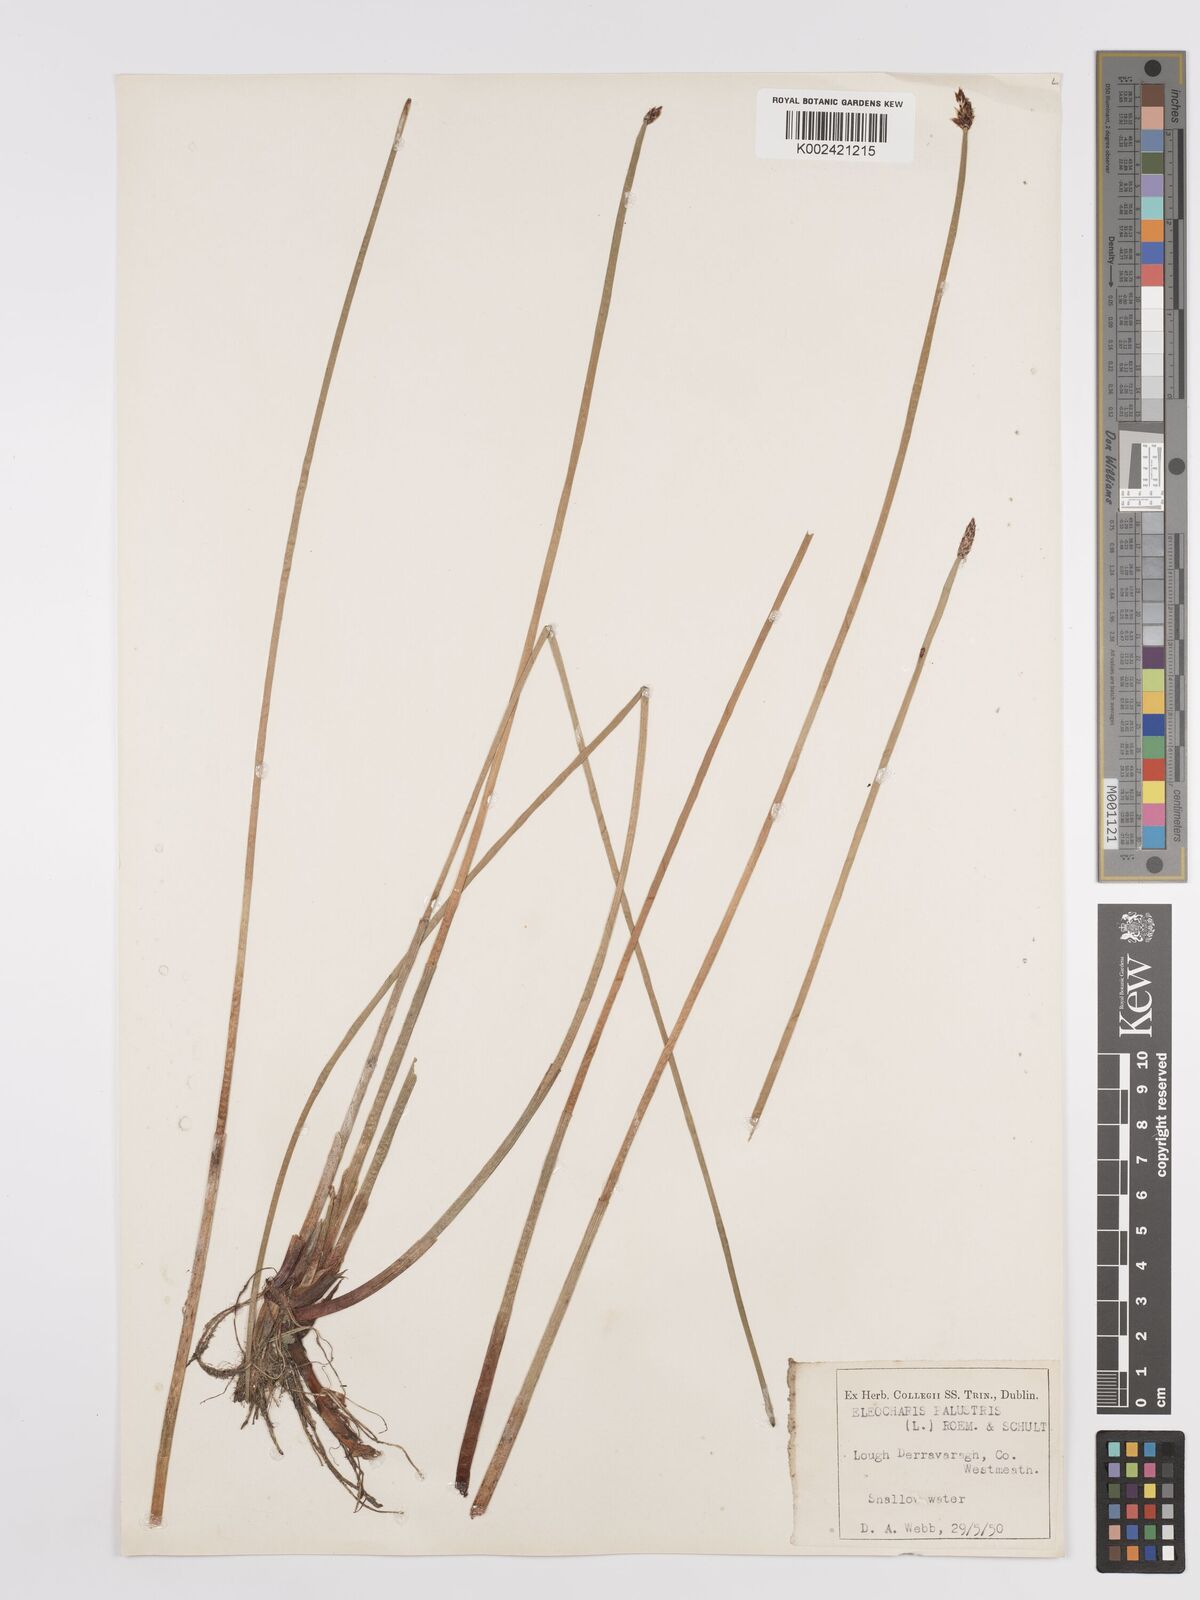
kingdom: Plantae
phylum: Tracheophyta
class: Liliopsida
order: Poales
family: Cyperaceae
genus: Eleocharis
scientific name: Eleocharis palustris
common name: Common spike-rush
